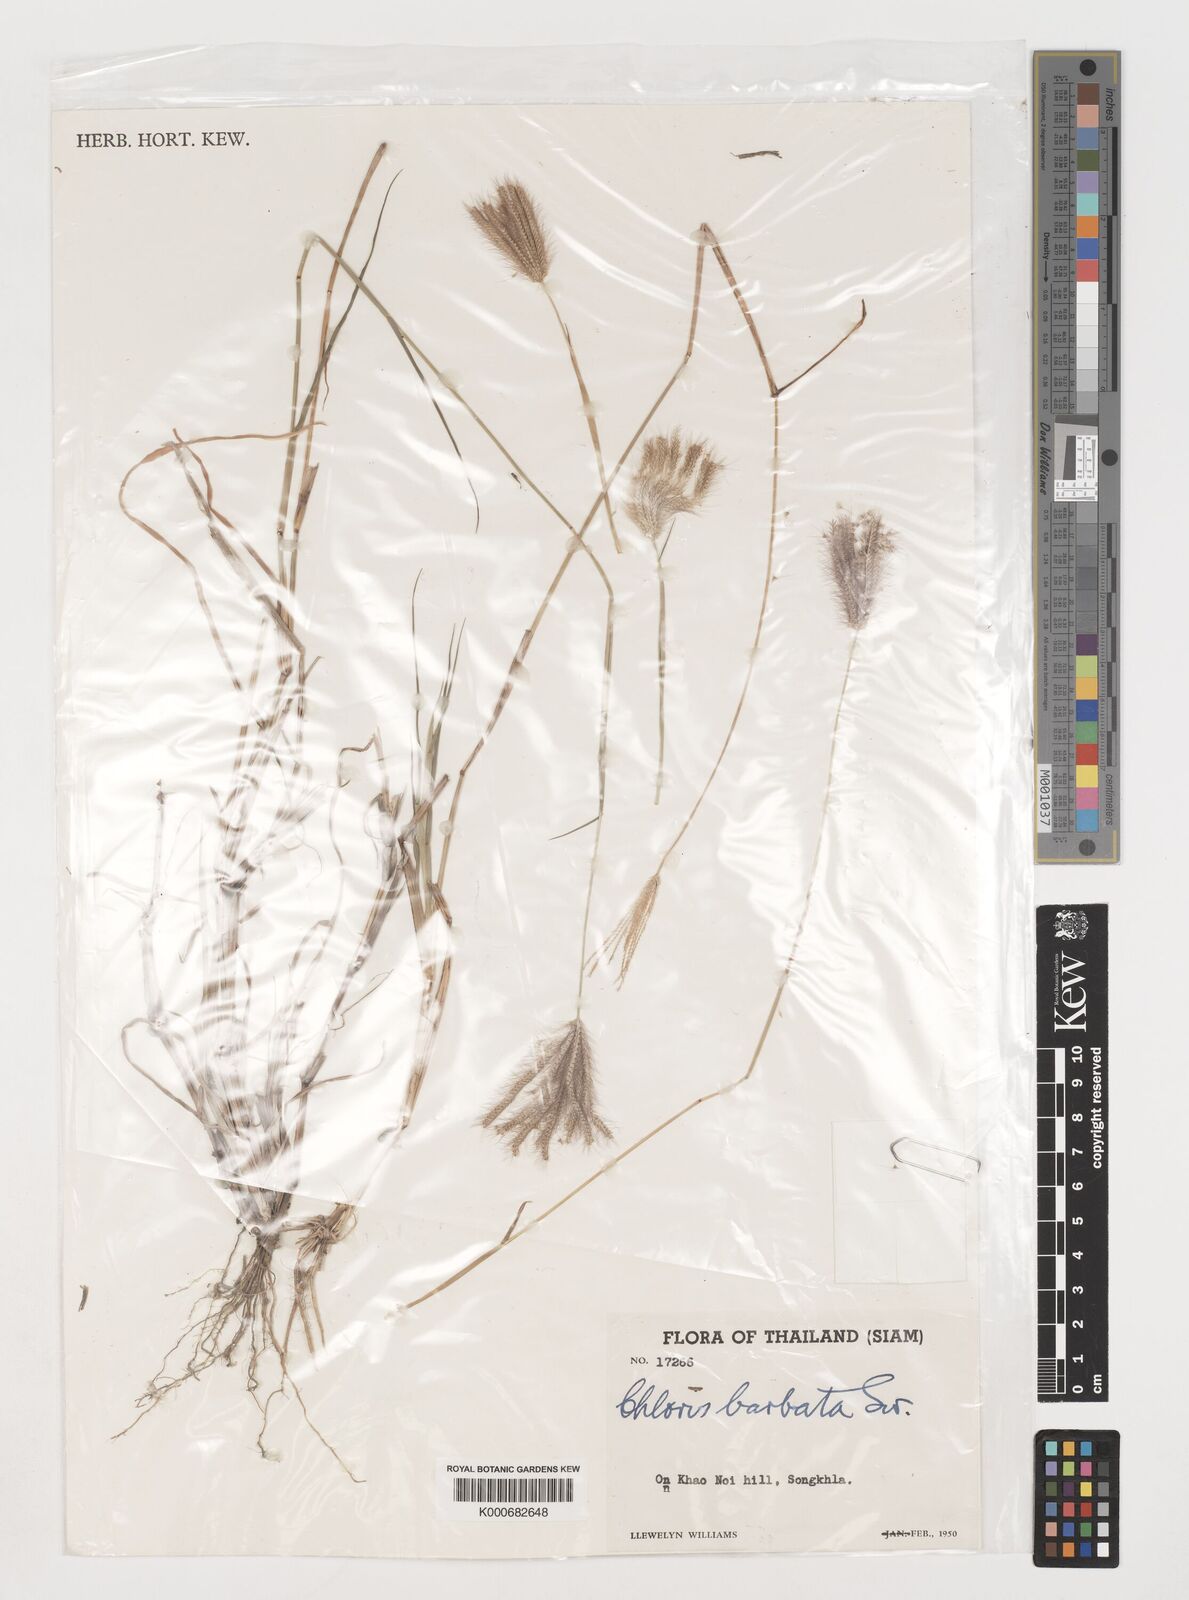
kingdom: Plantae
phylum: Tracheophyta
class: Liliopsida
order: Poales
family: Poaceae
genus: Chloris
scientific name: Chloris barbata
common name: Swollen fingergrass
